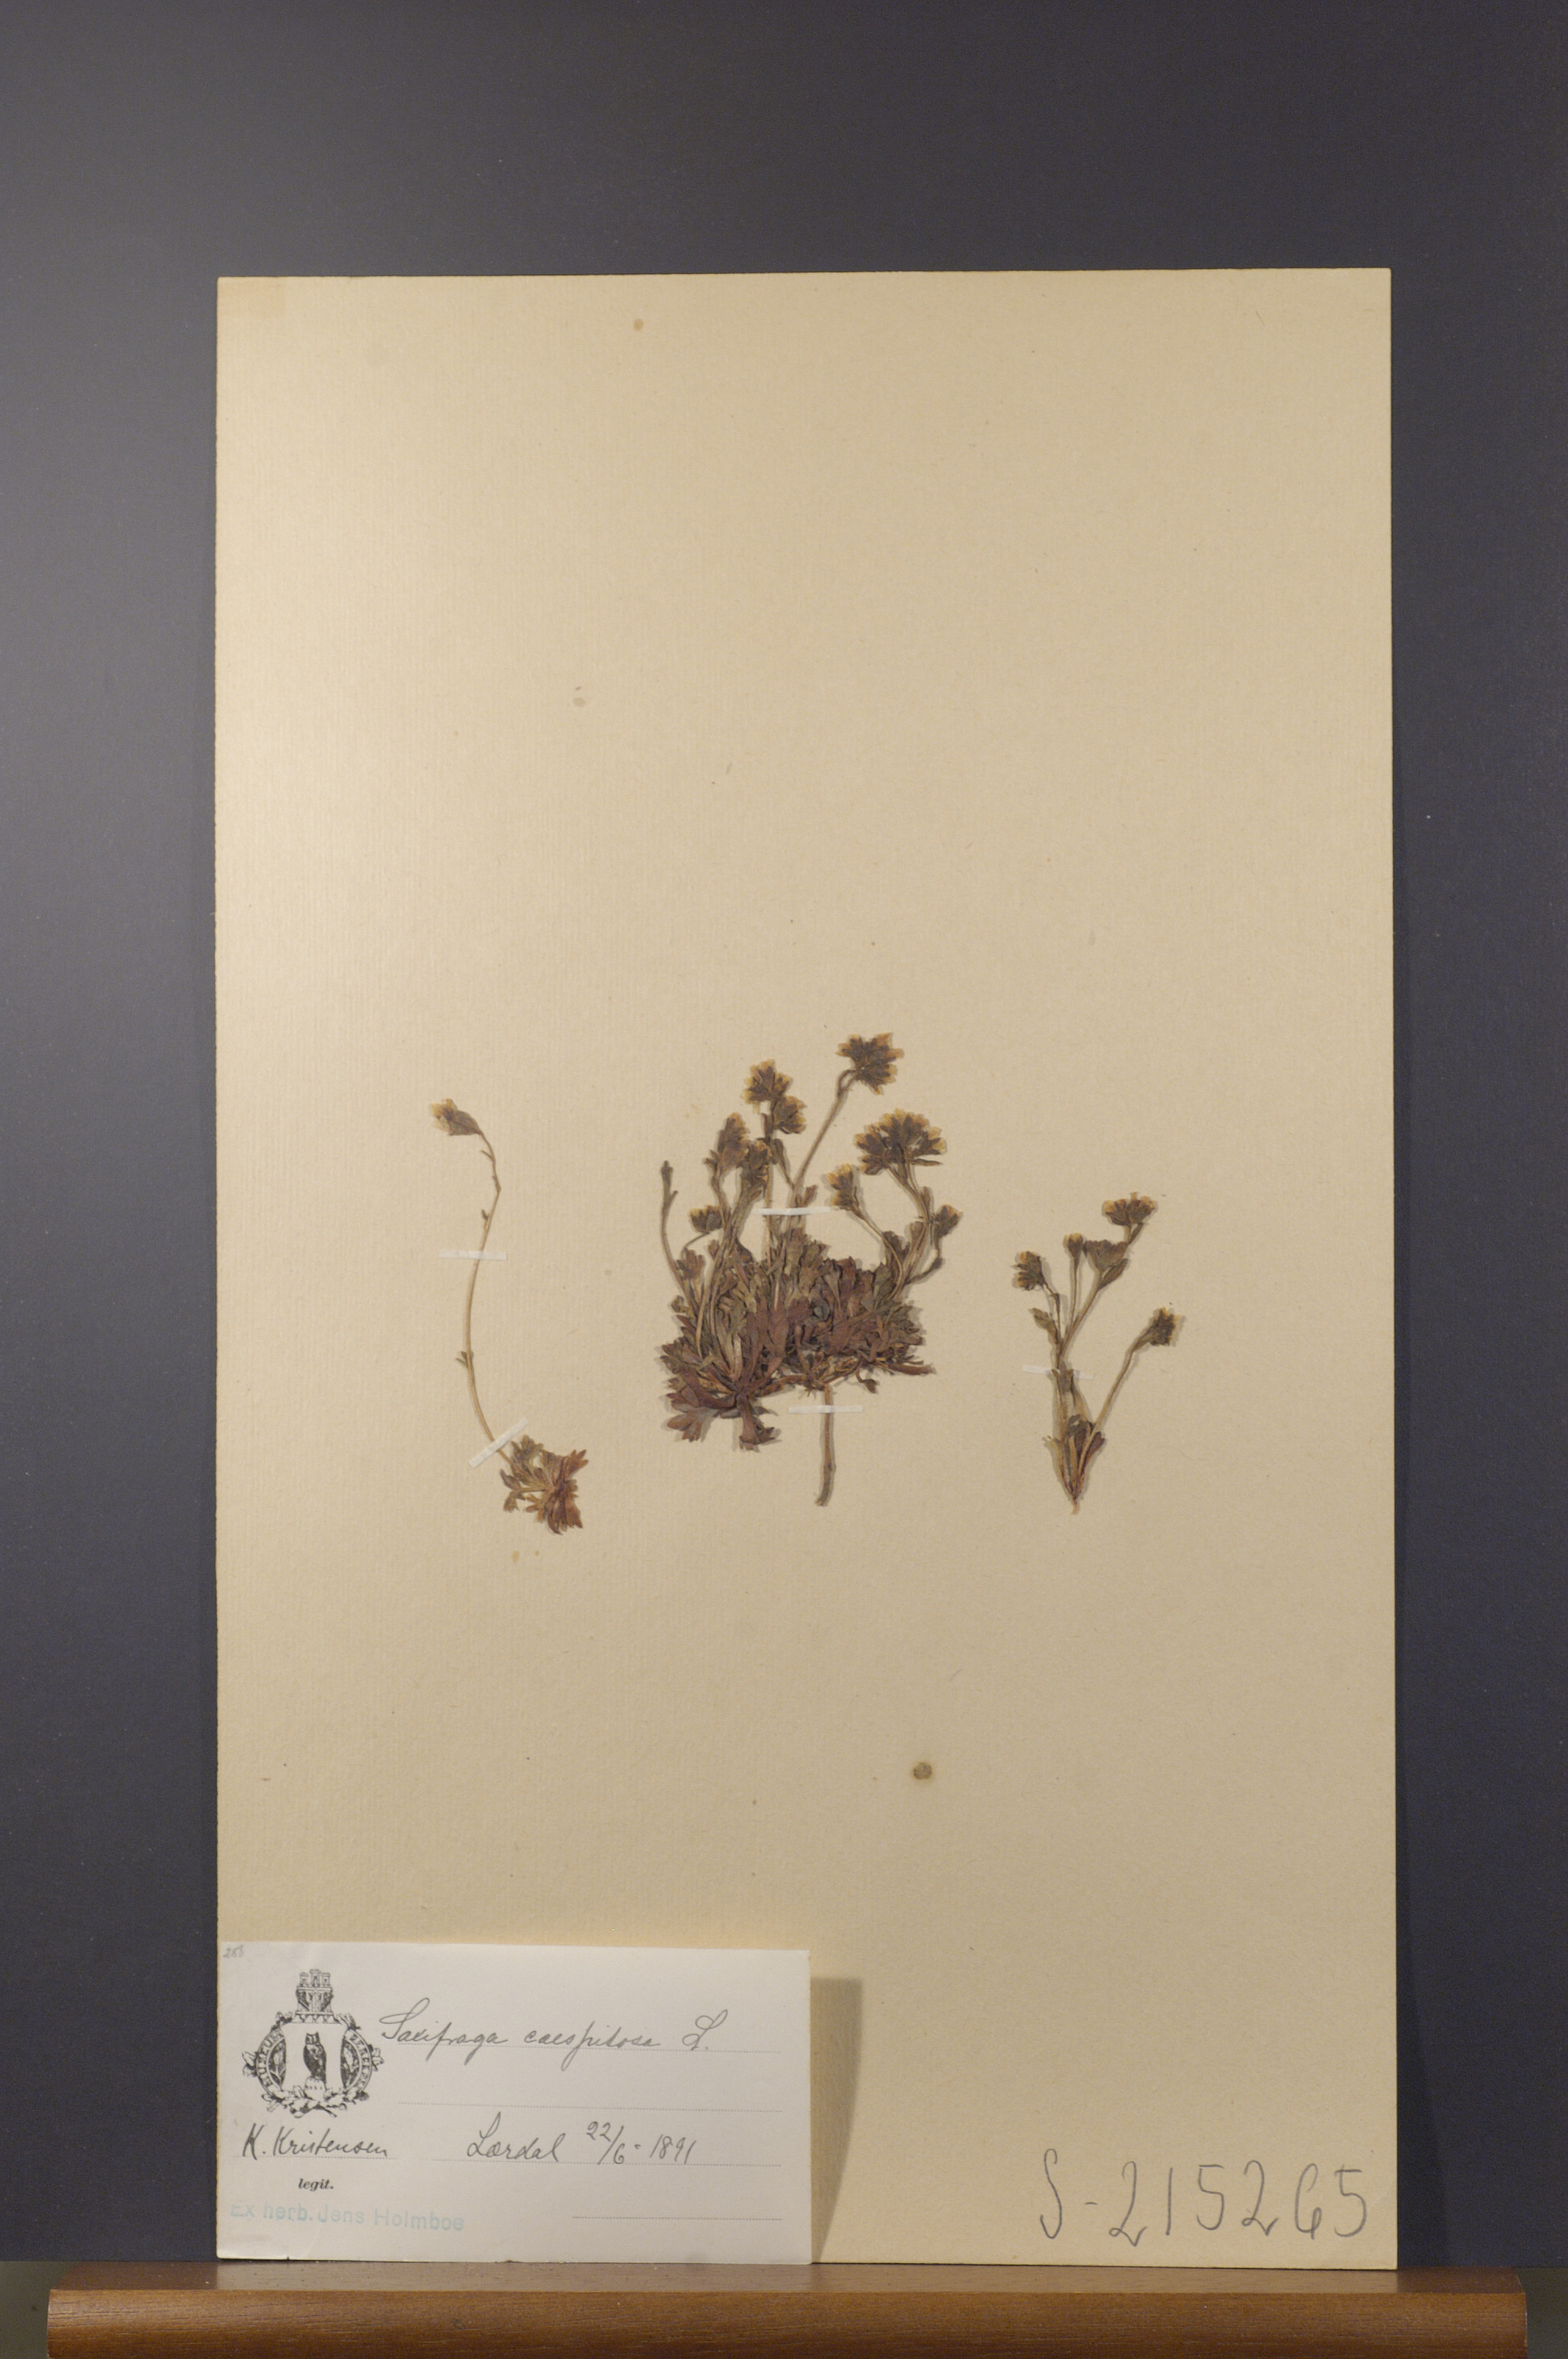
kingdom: Plantae
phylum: Tracheophyta
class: Magnoliopsida
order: Saxifragales
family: Saxifragaceae
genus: Saxifraga
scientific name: Saxifraga cespitosa
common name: Tufted saxifrage
